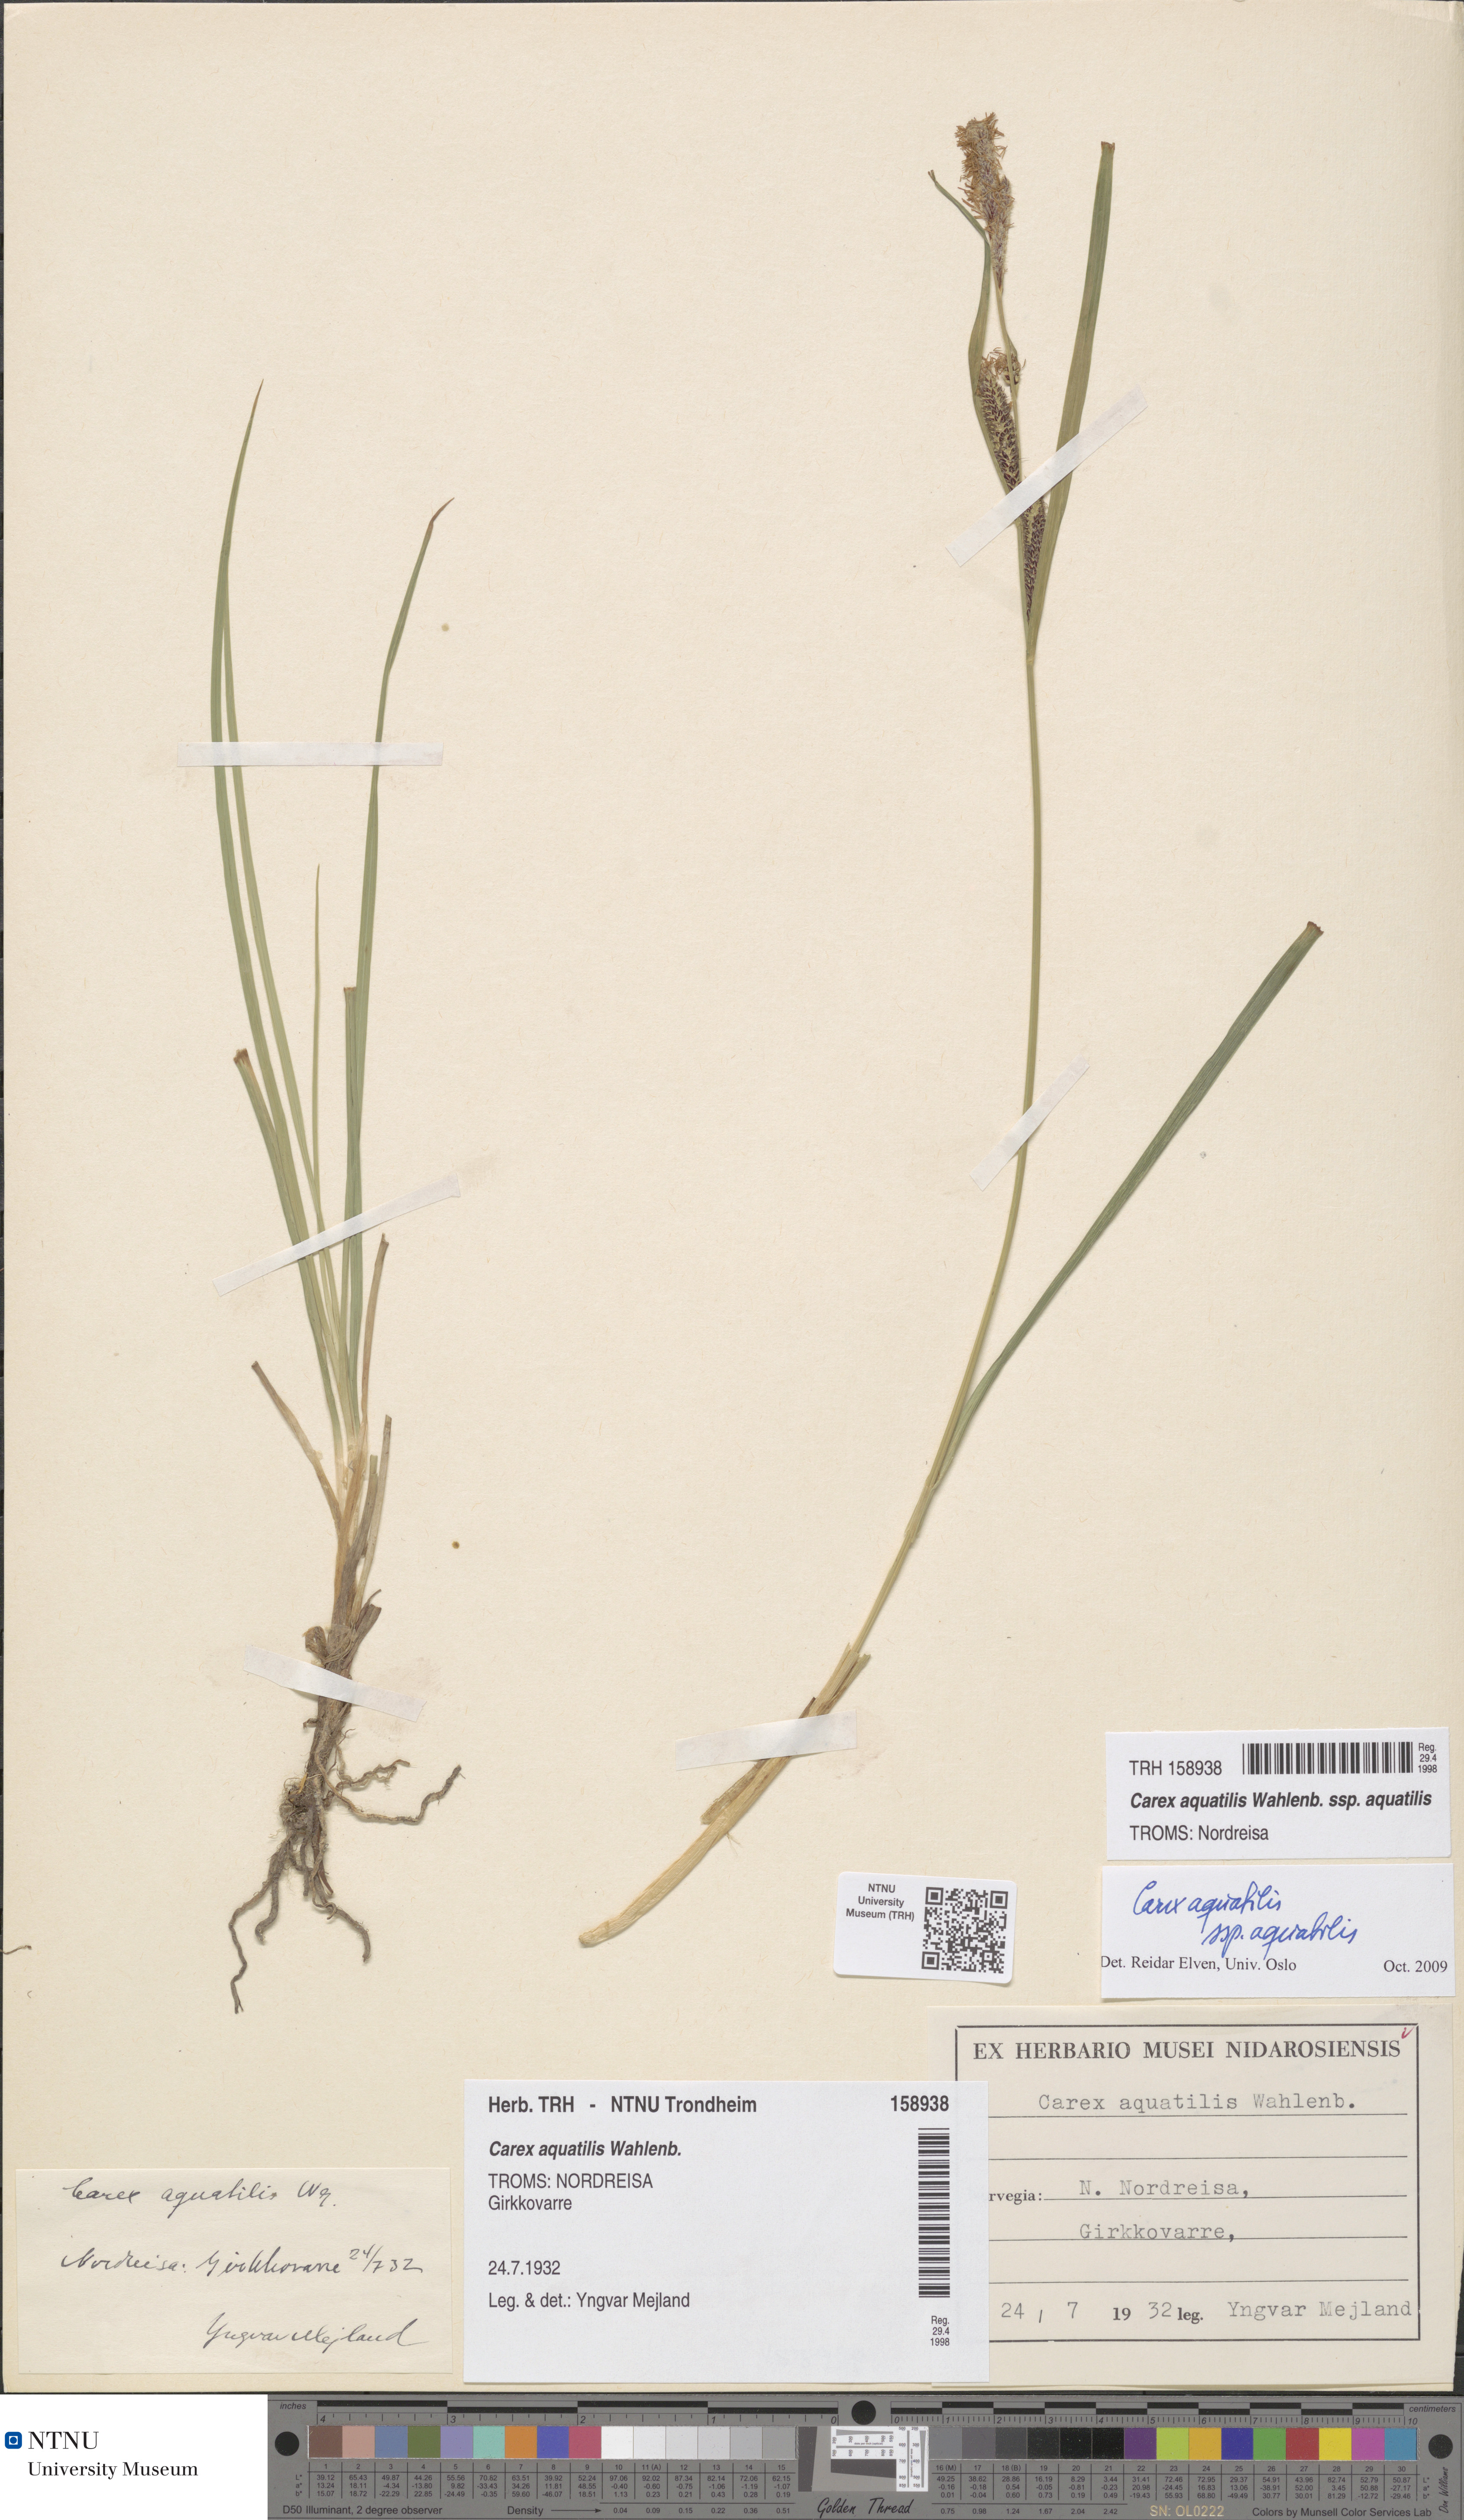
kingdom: Plantae
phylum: Tracheophyta
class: Liliopsida
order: Poales
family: Cyperaceae
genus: Carex
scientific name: Carex aquatilis
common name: Water sedge
